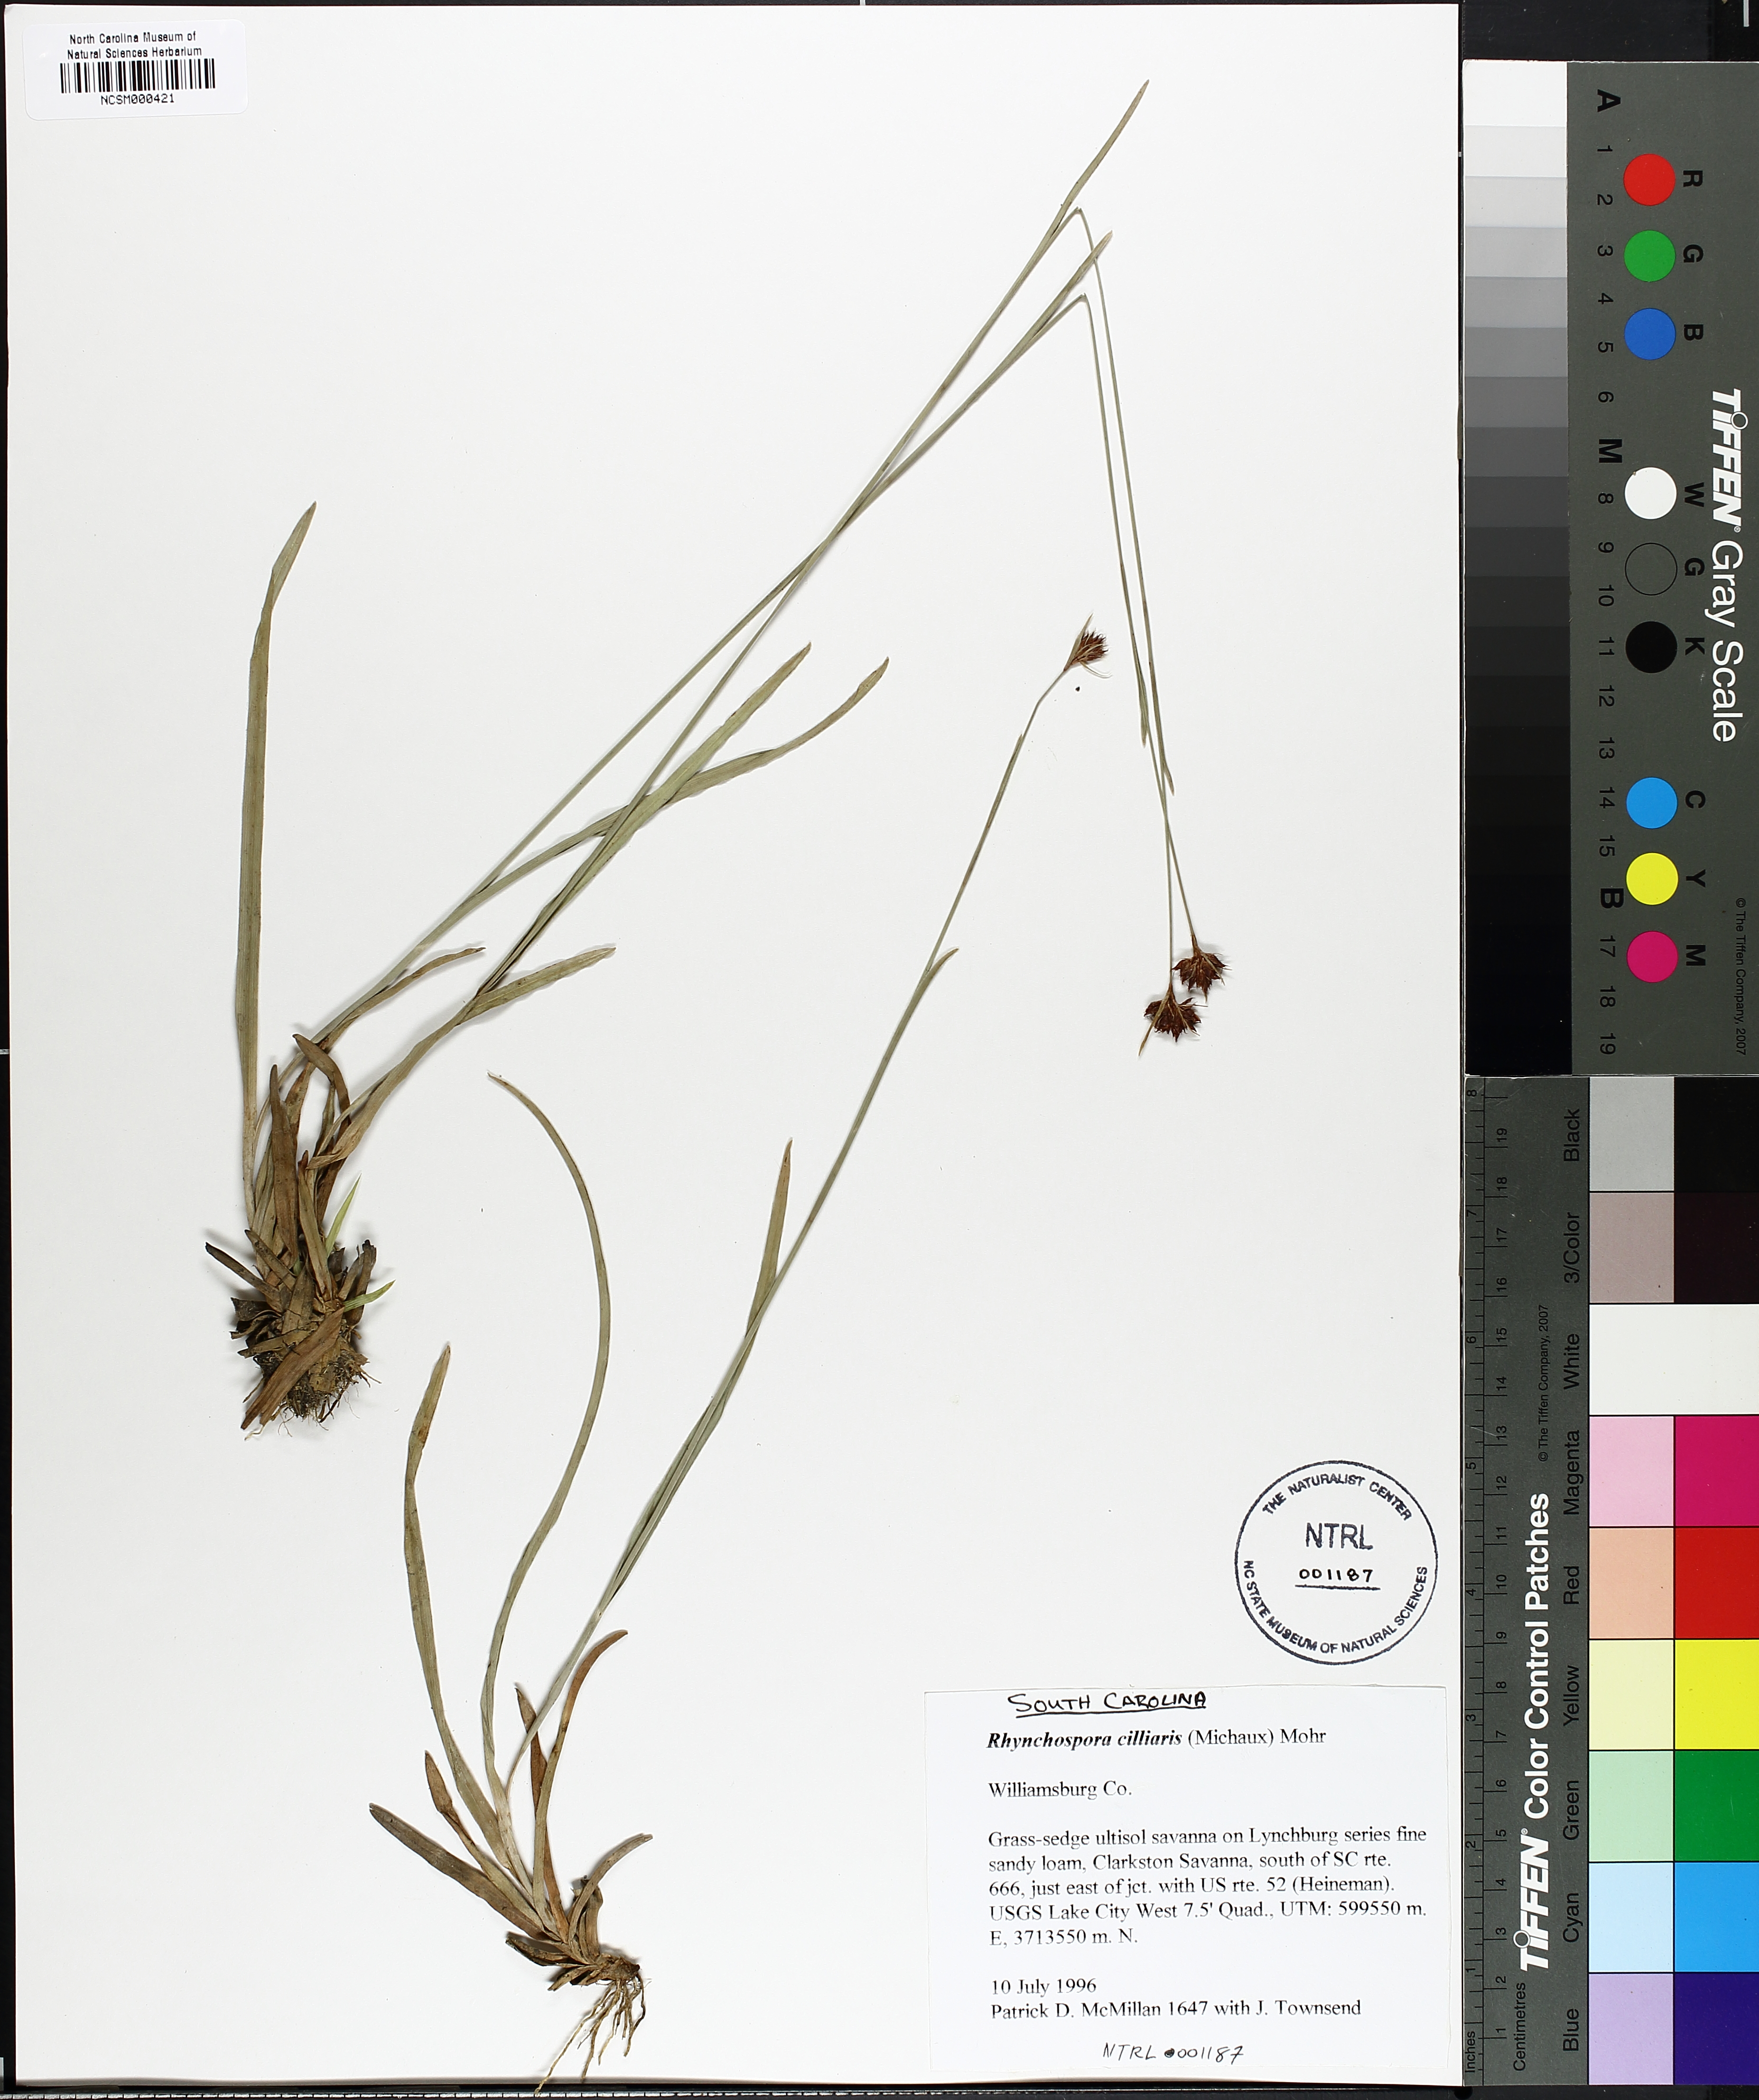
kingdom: Plantae
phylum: Tracheophyta
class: Liliopsida
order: Poales
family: Cyperaceae
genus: Rhynchospora
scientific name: Rhynchospora ciliaris
